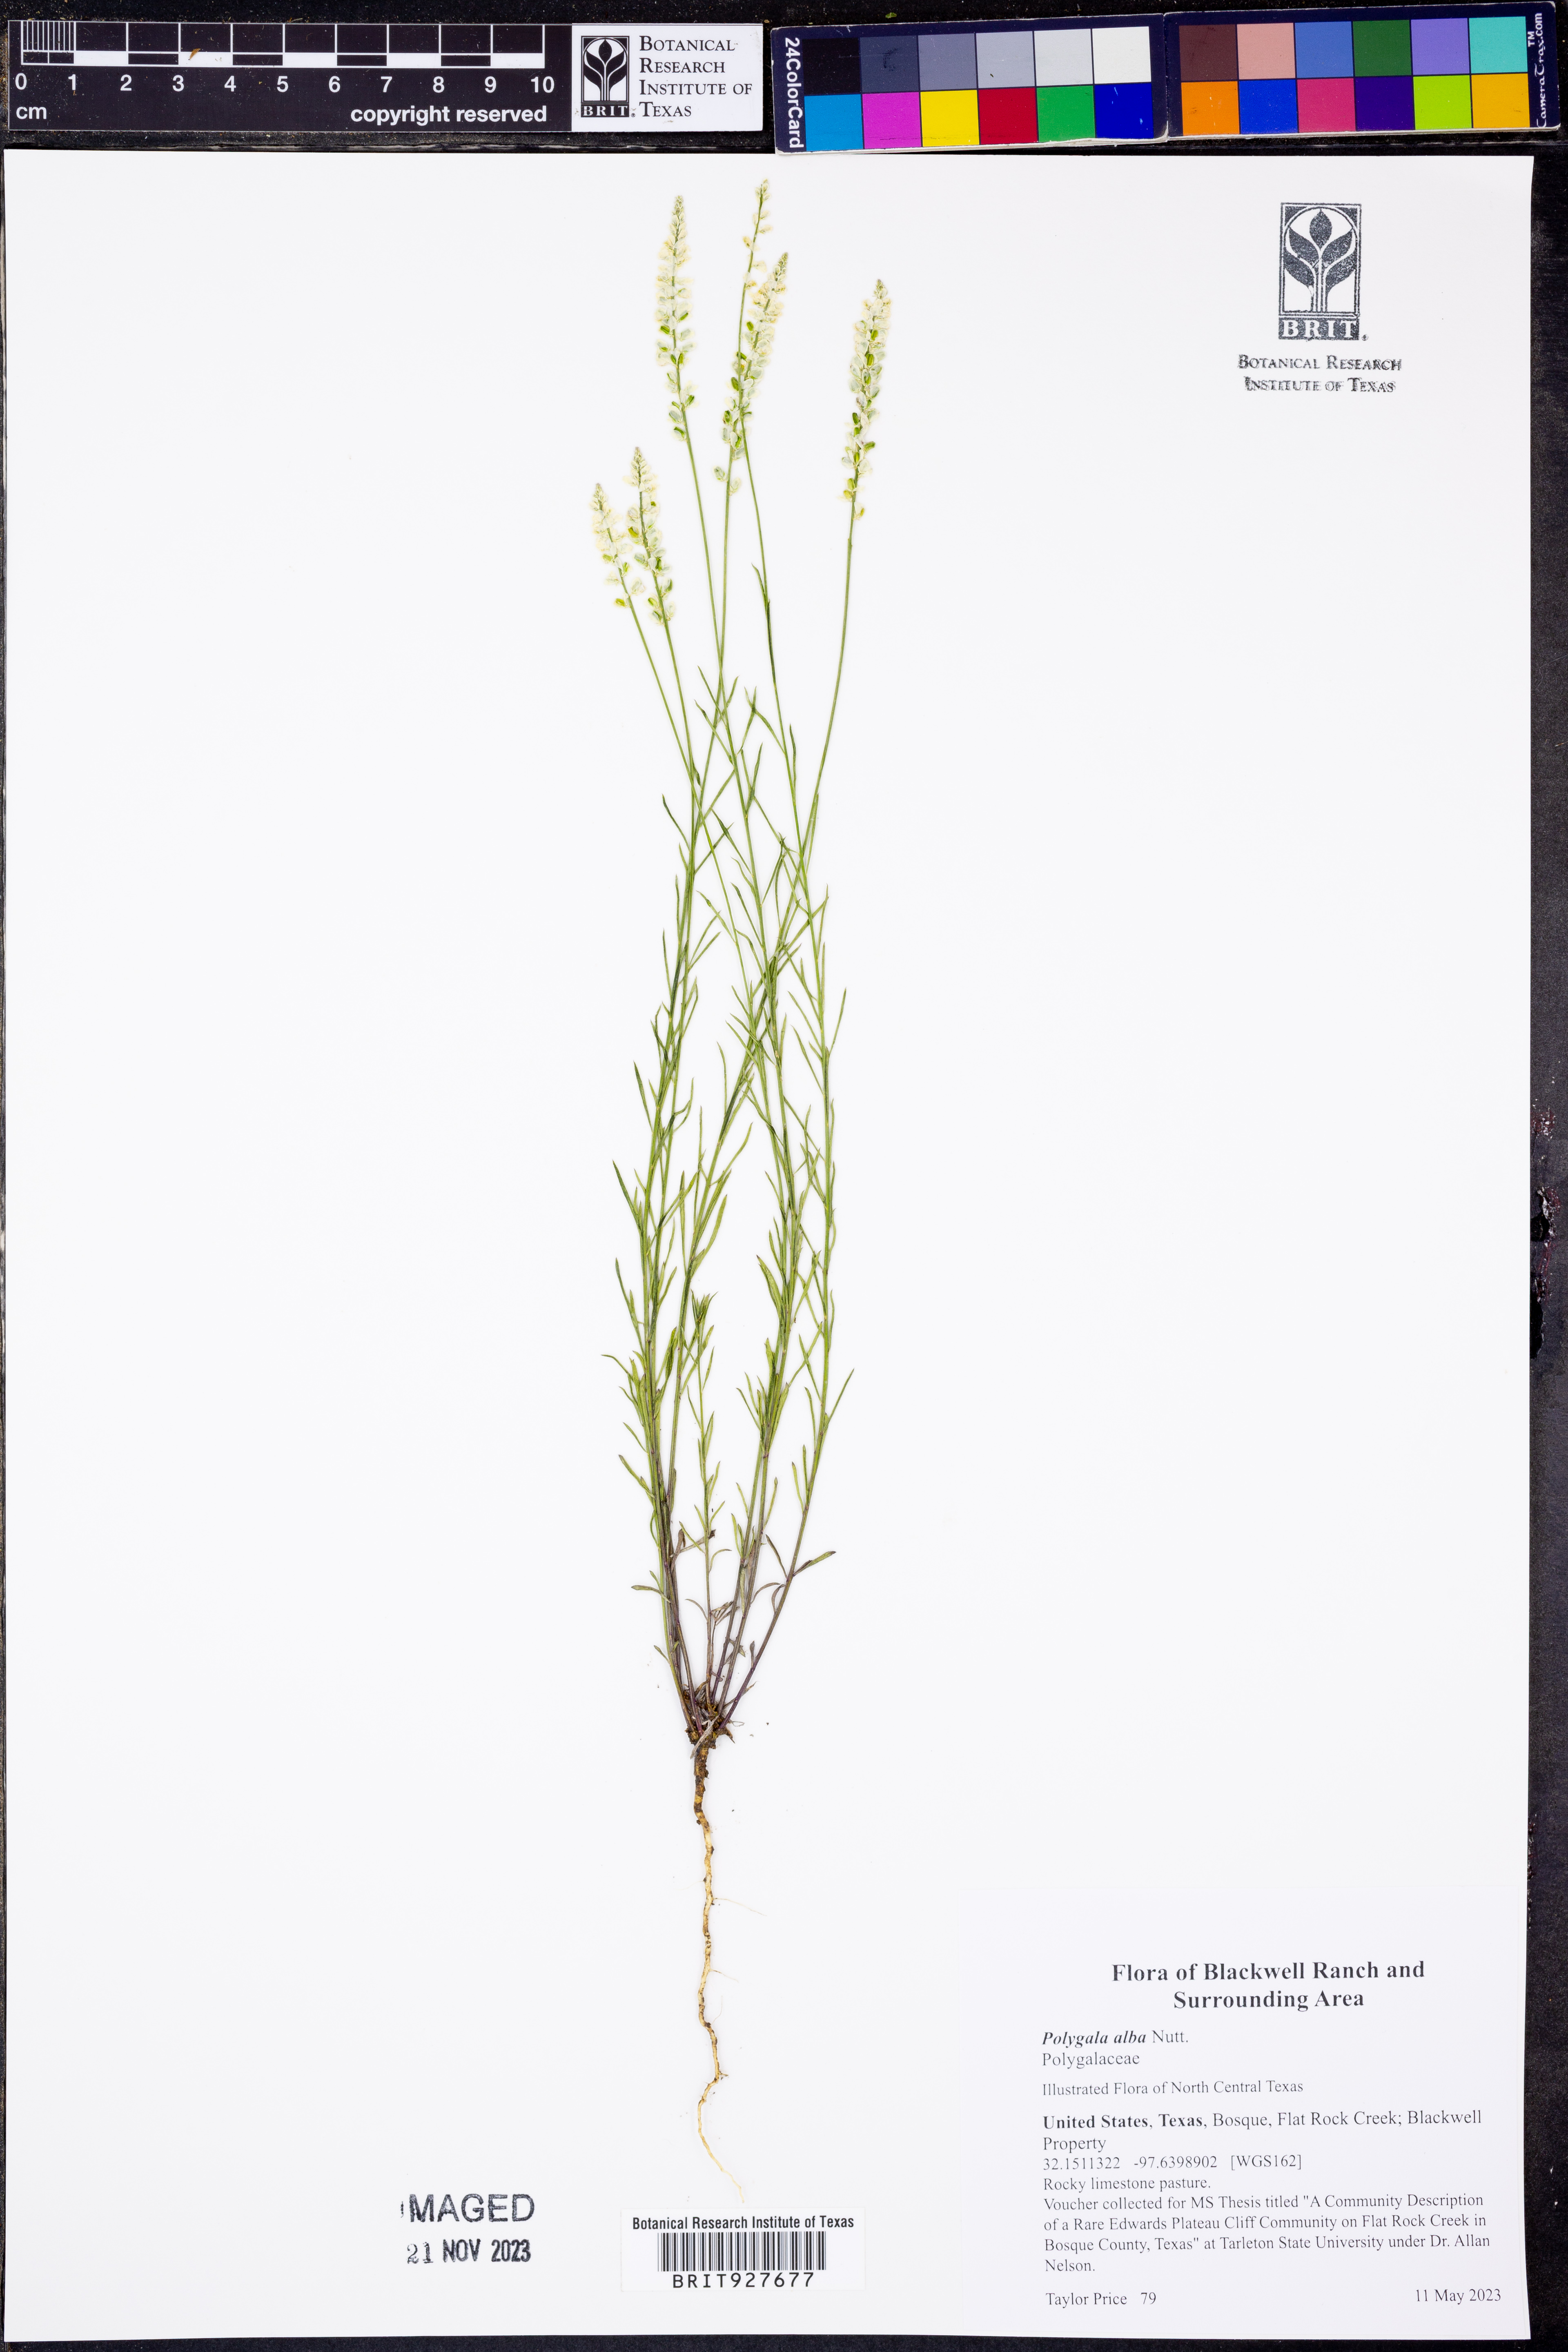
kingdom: Plantae
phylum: Tracheophyta
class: Magnoliopsida
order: Fabales
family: Polygalaceae
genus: Polygala
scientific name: Polygala alba
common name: White milkwort
